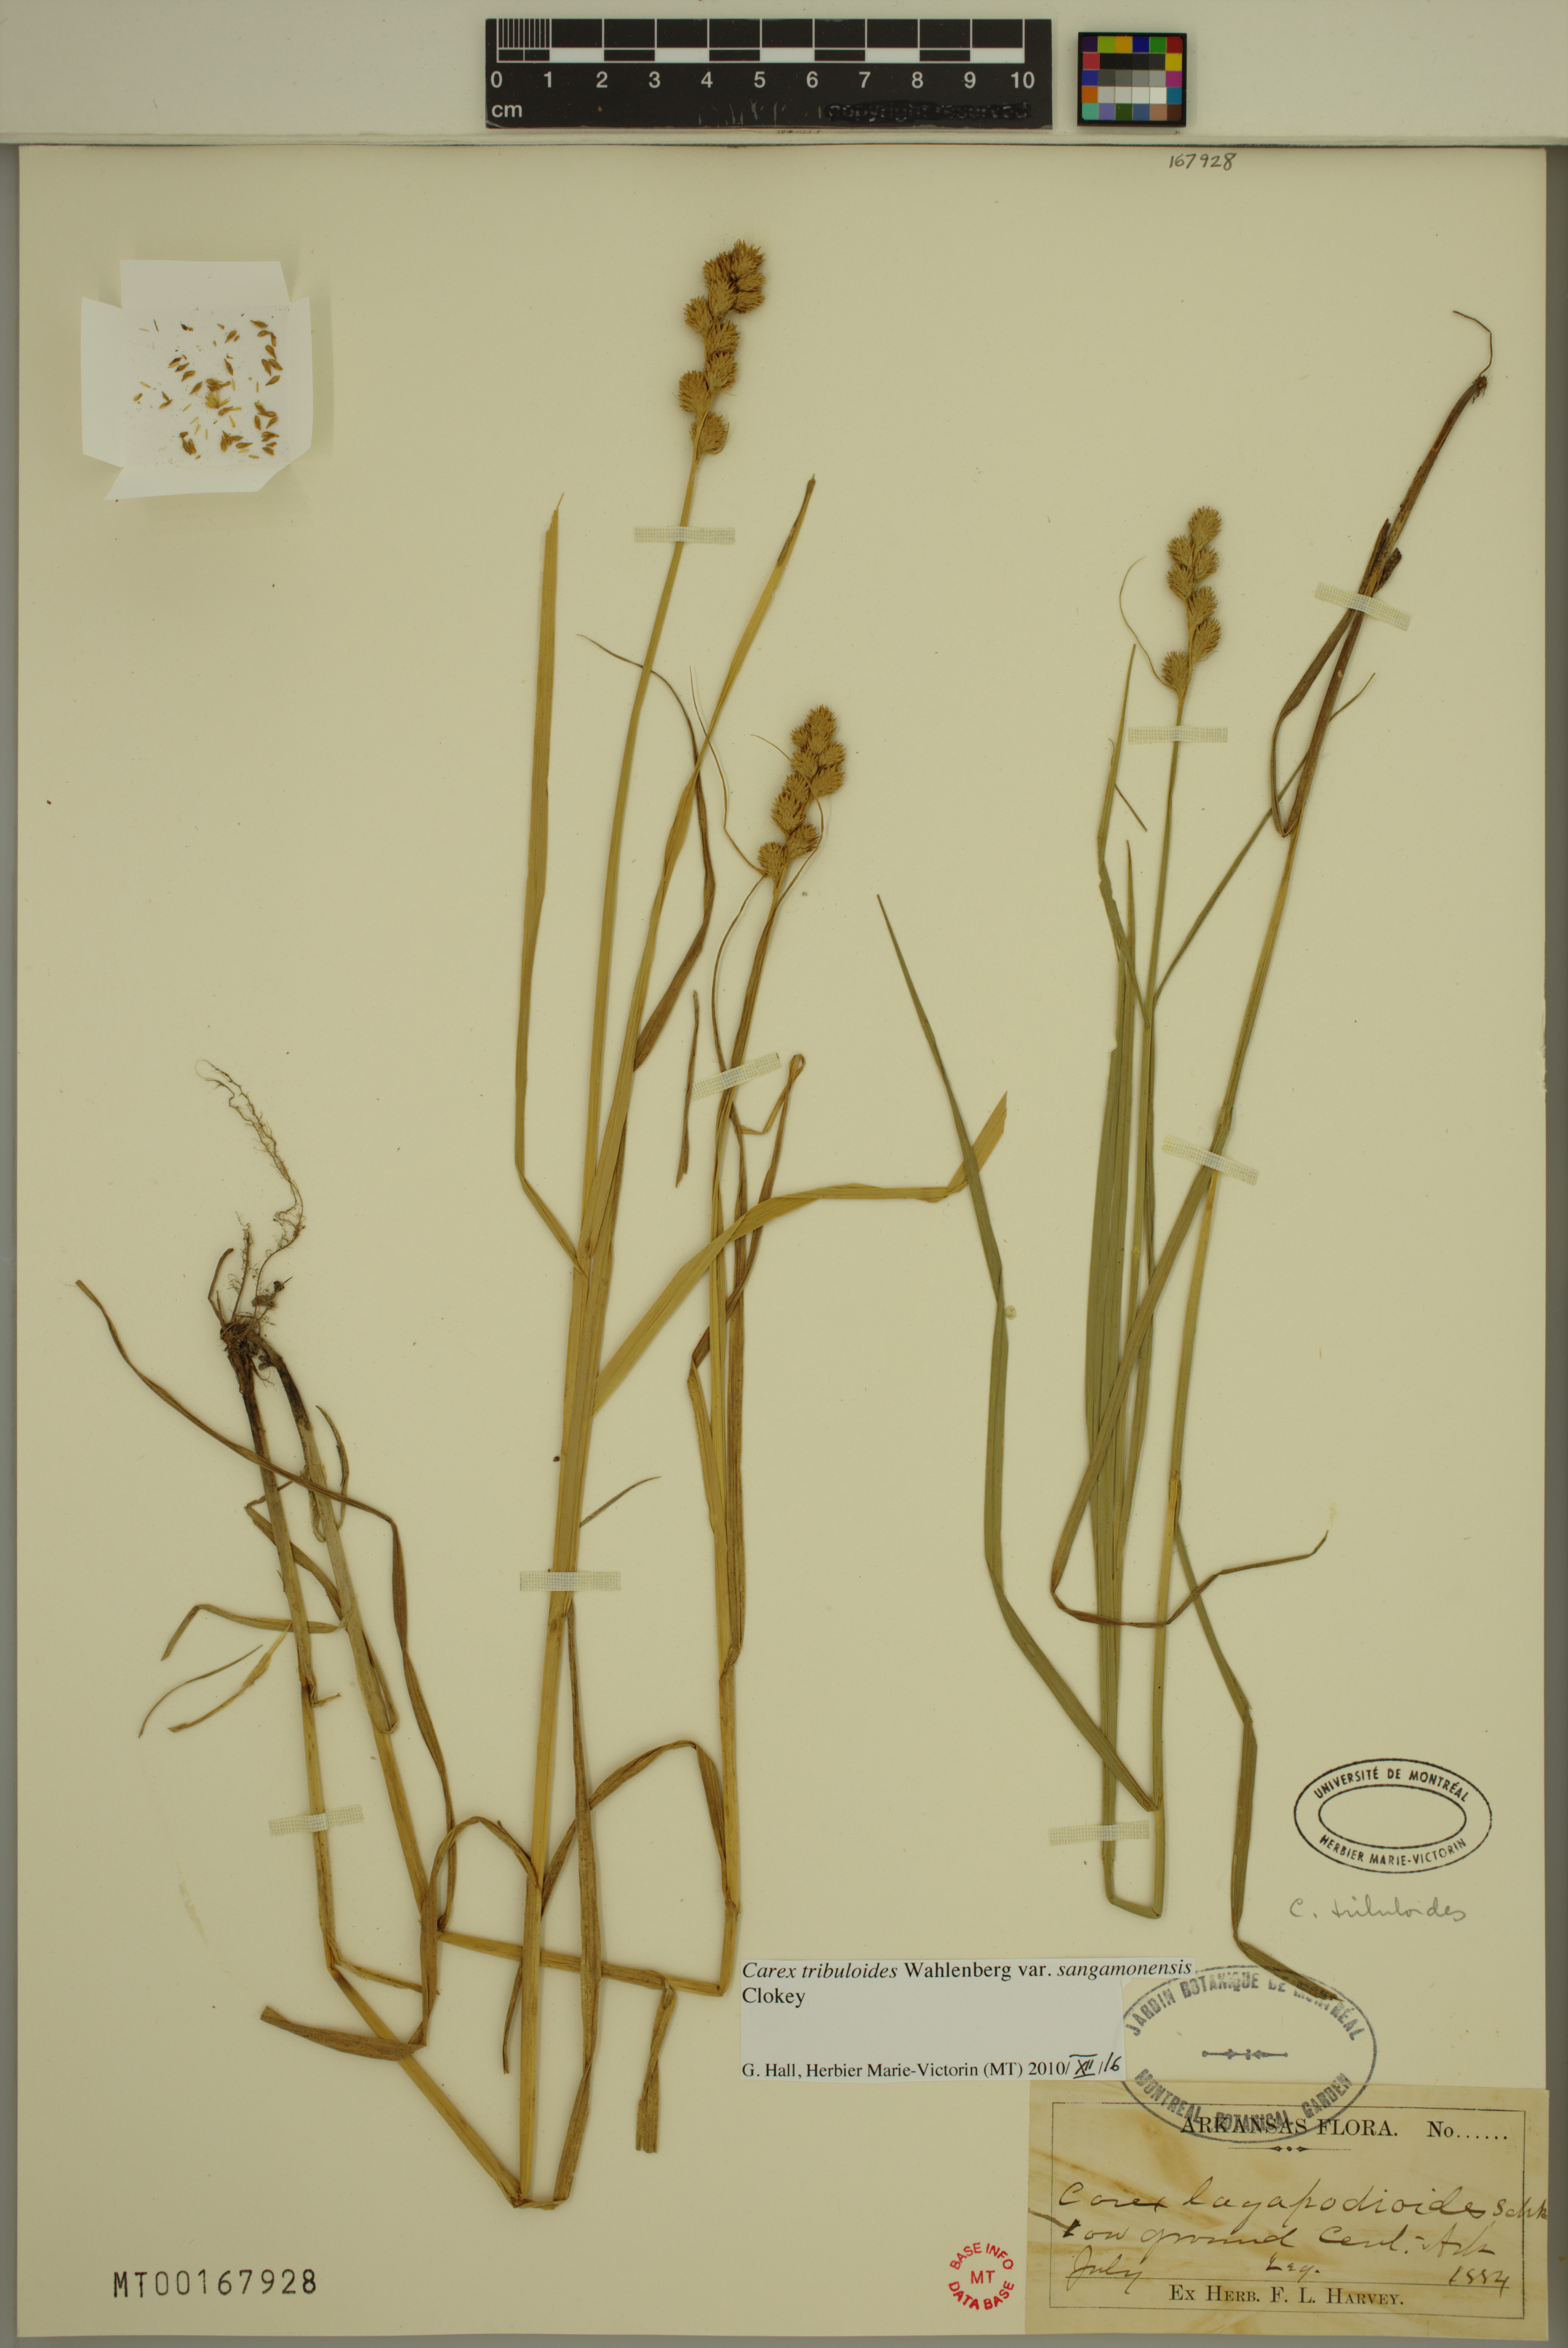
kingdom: Plantae
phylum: Tracheophyta
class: Liliopsida
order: Poales
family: Cyperaceae
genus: Carex
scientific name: Carex tribuloides
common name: Blunt broom sedge
